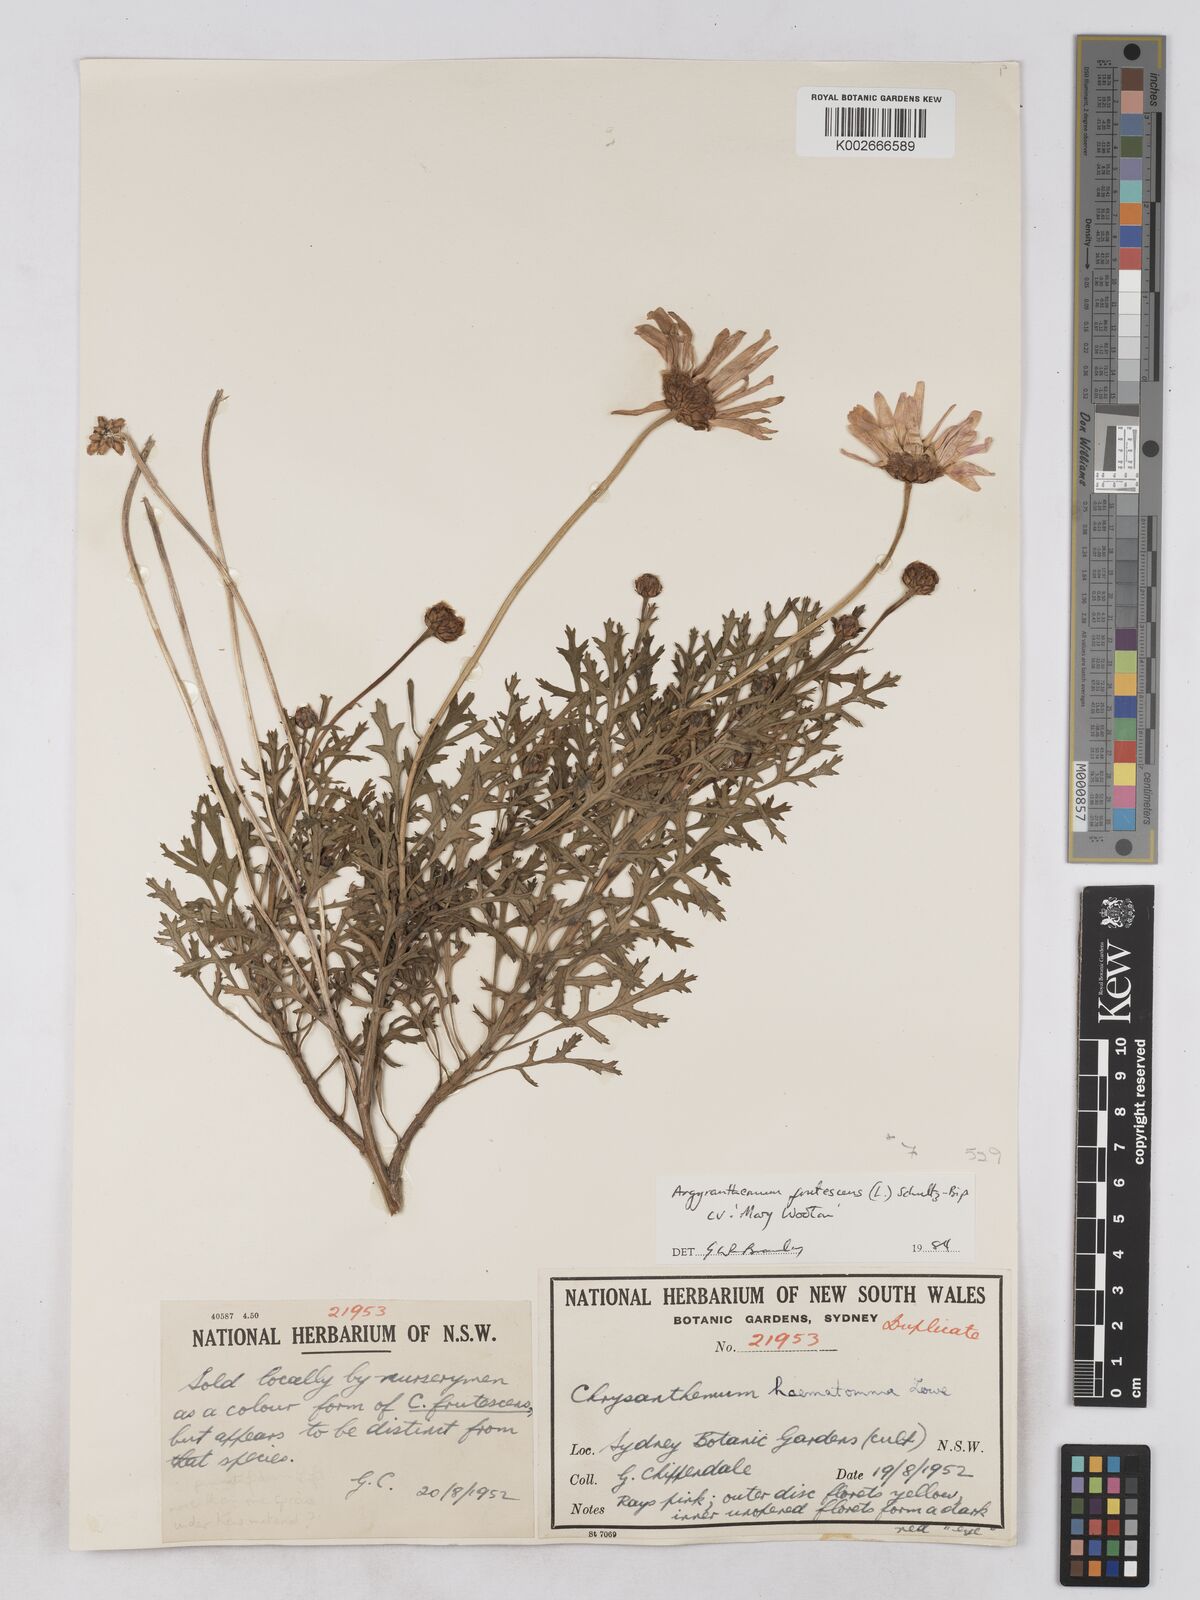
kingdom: Plantae
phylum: Tracheophyta
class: Magnoliopsida
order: Asterales
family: Asteraceae
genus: Argyranthemum
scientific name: Argyranthemum frutescens
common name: Paris daisy
